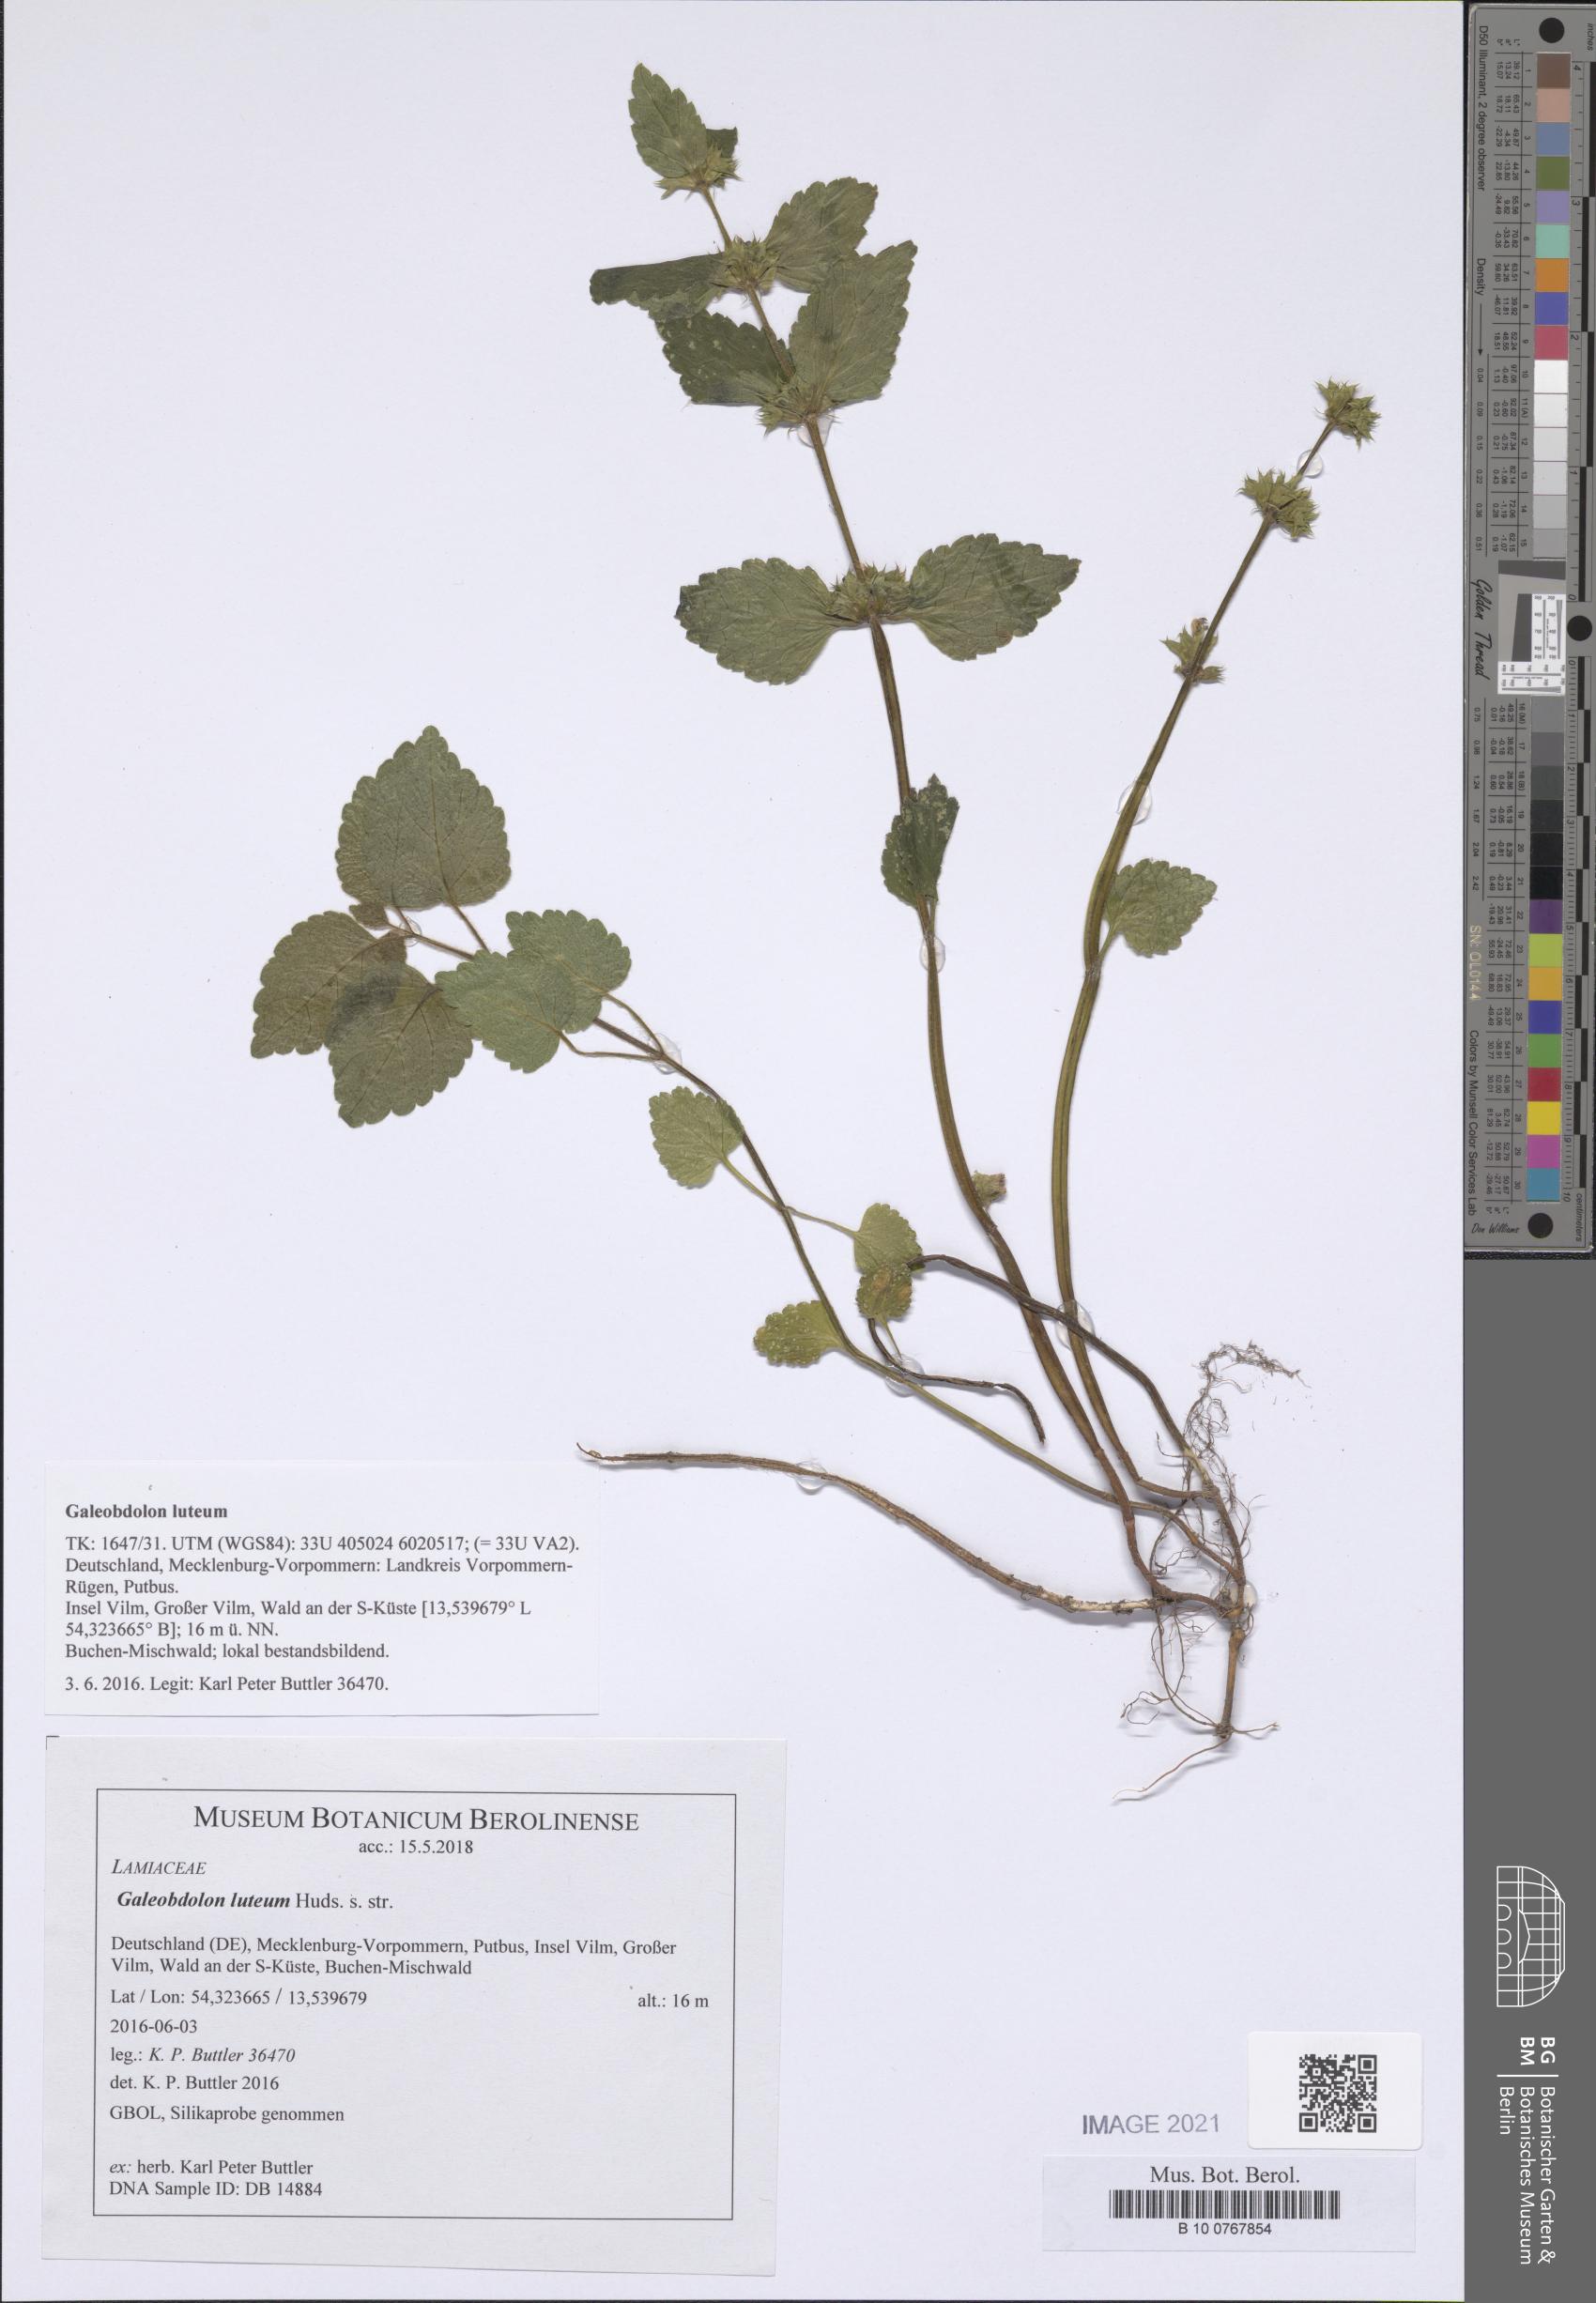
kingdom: Plantae
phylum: Tracheophyta
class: Magnoliopsida
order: Lamiales
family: Lamiaceae
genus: Lamium
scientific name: Lamium galeobdolon
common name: Yellow archangel
